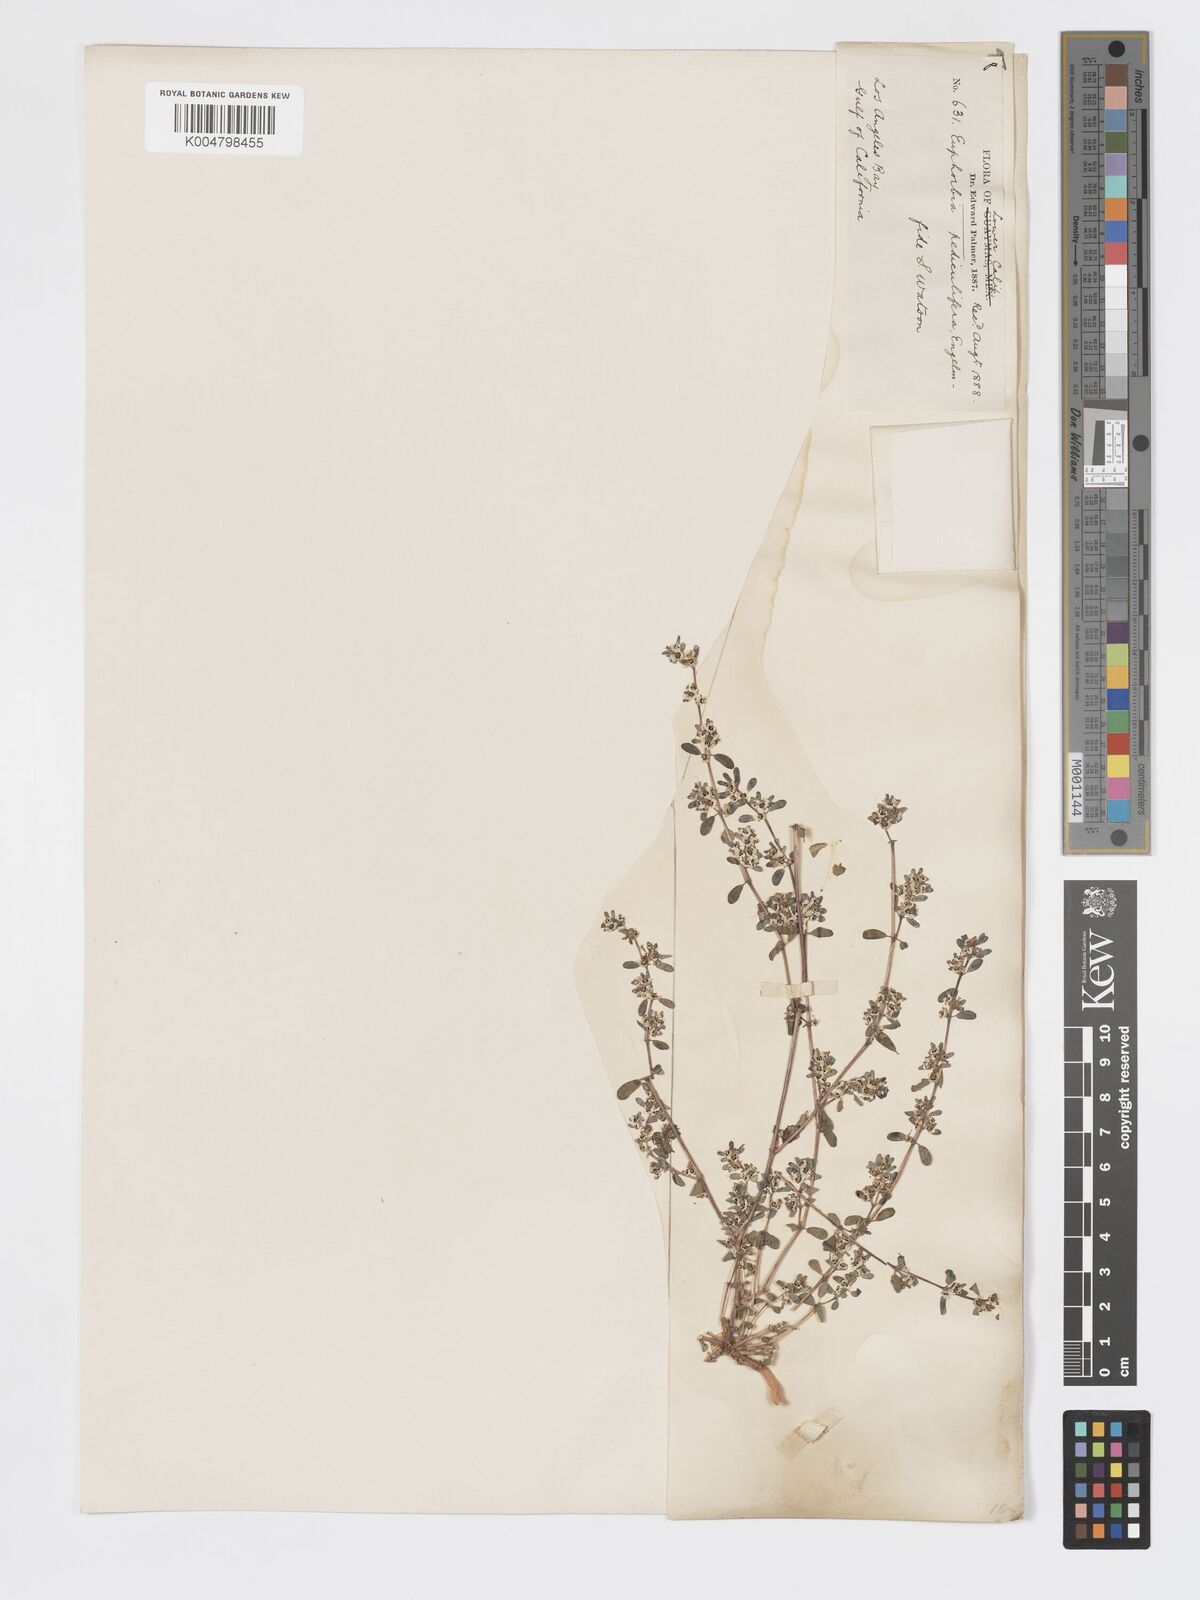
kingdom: Plantae
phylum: Tracheophyta
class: Magnoliopsida
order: Malpighiales
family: Euphorbiaceae
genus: Euphorbia
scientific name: Euphorbia pediculifera
